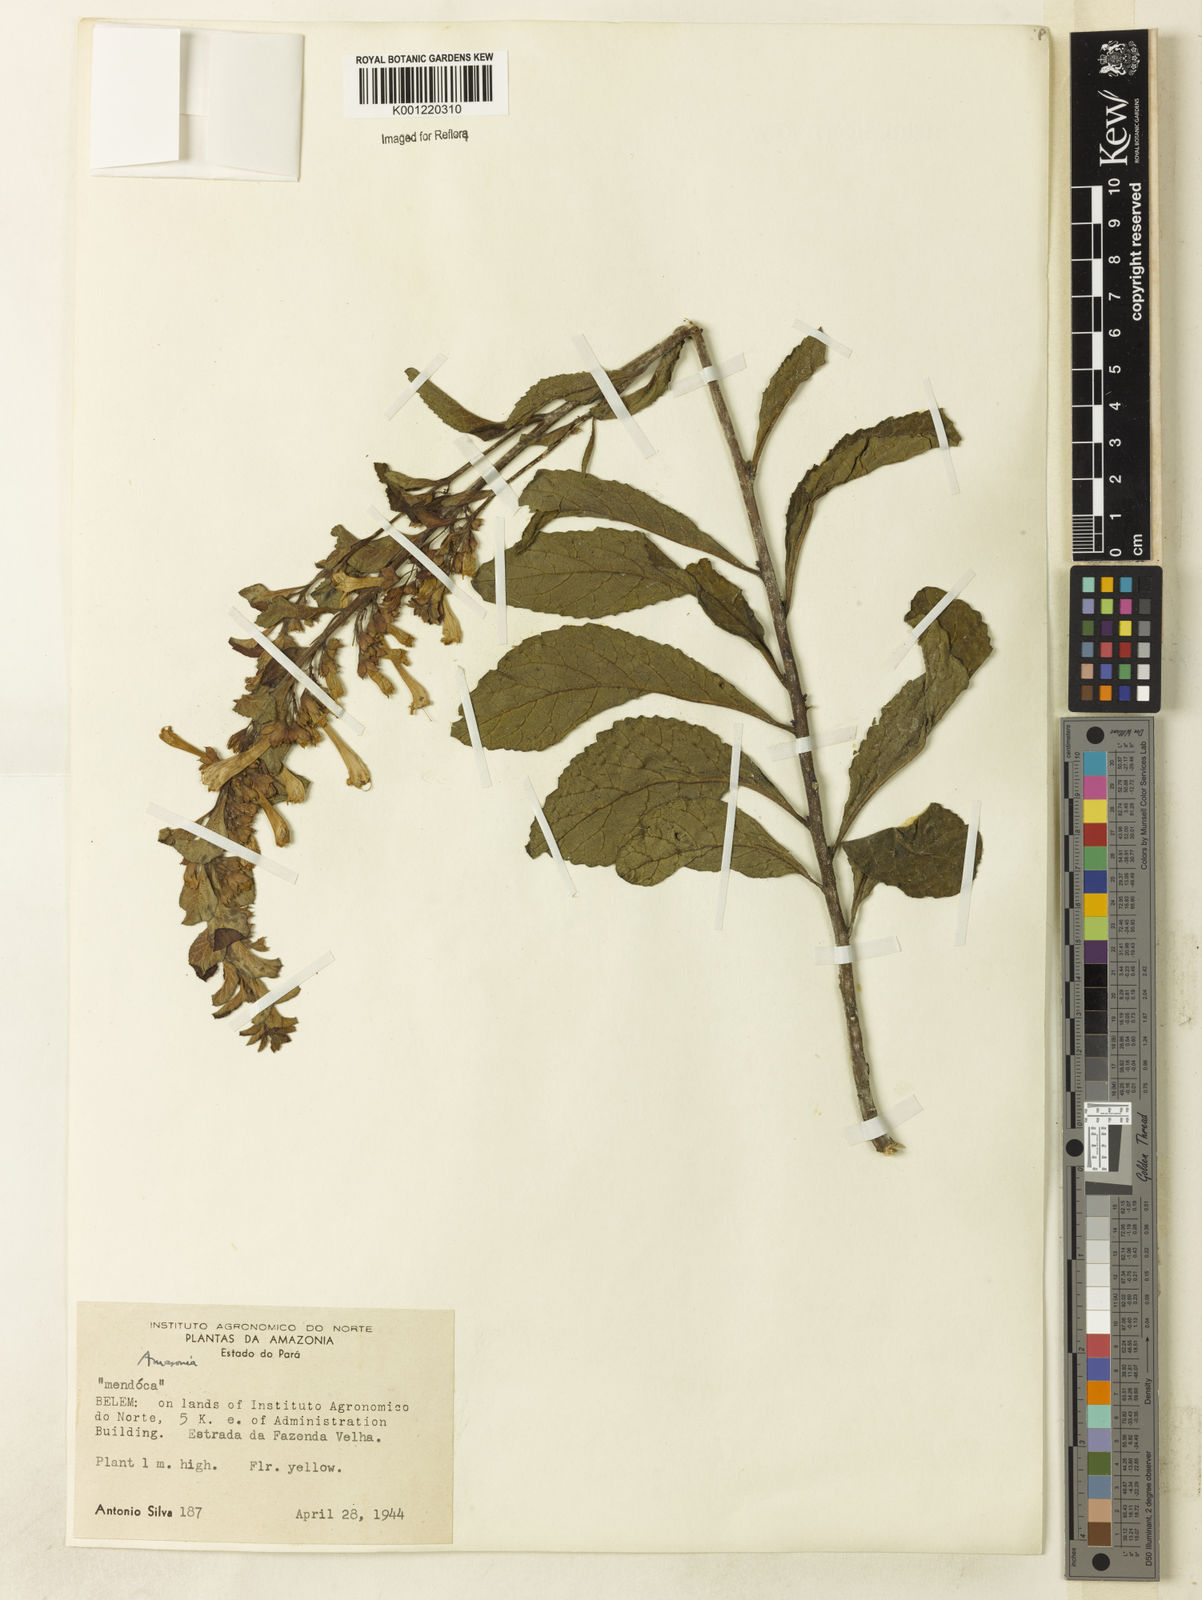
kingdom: Plantae
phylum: Tracheophyta
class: Magnoliopsida
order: Lamiales
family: Lamiaceae
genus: Amasonia
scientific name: Amasonia campestris
